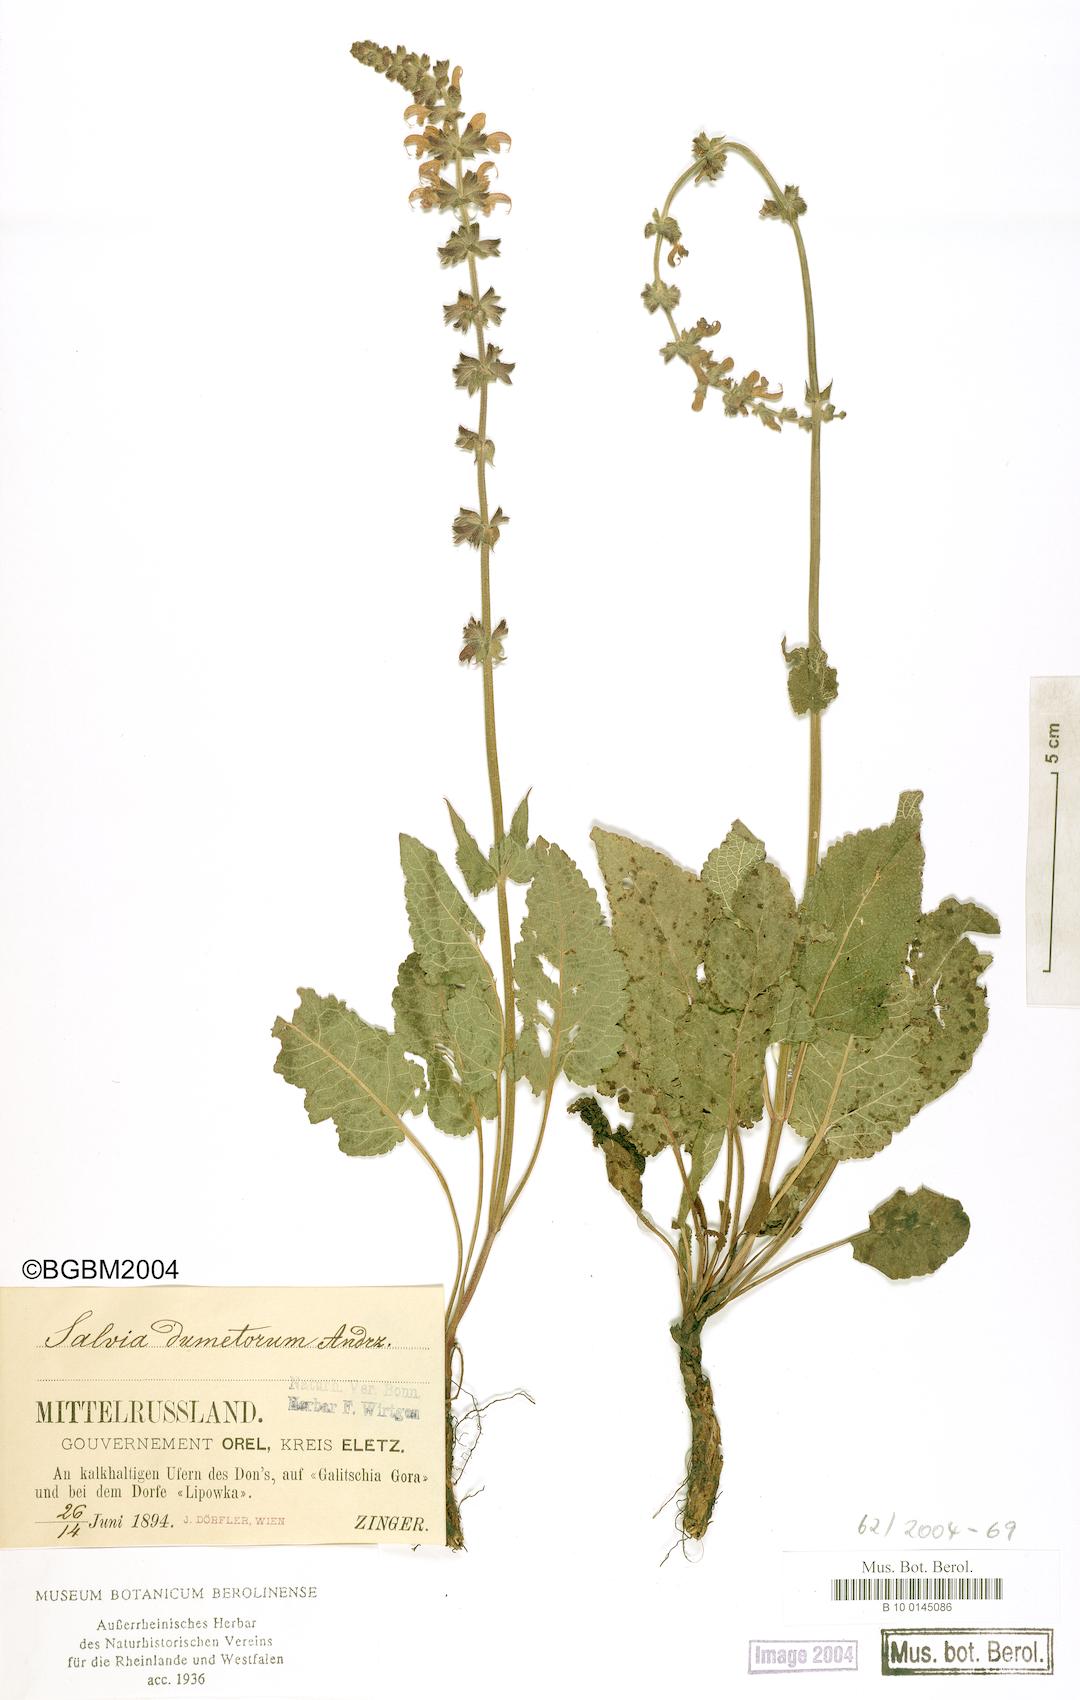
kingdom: Plantae
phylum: Tracheophyta
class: Magnoliopsida
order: Lamiales
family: Lamiaceae
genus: Salvia
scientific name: Salvia dumetorum
